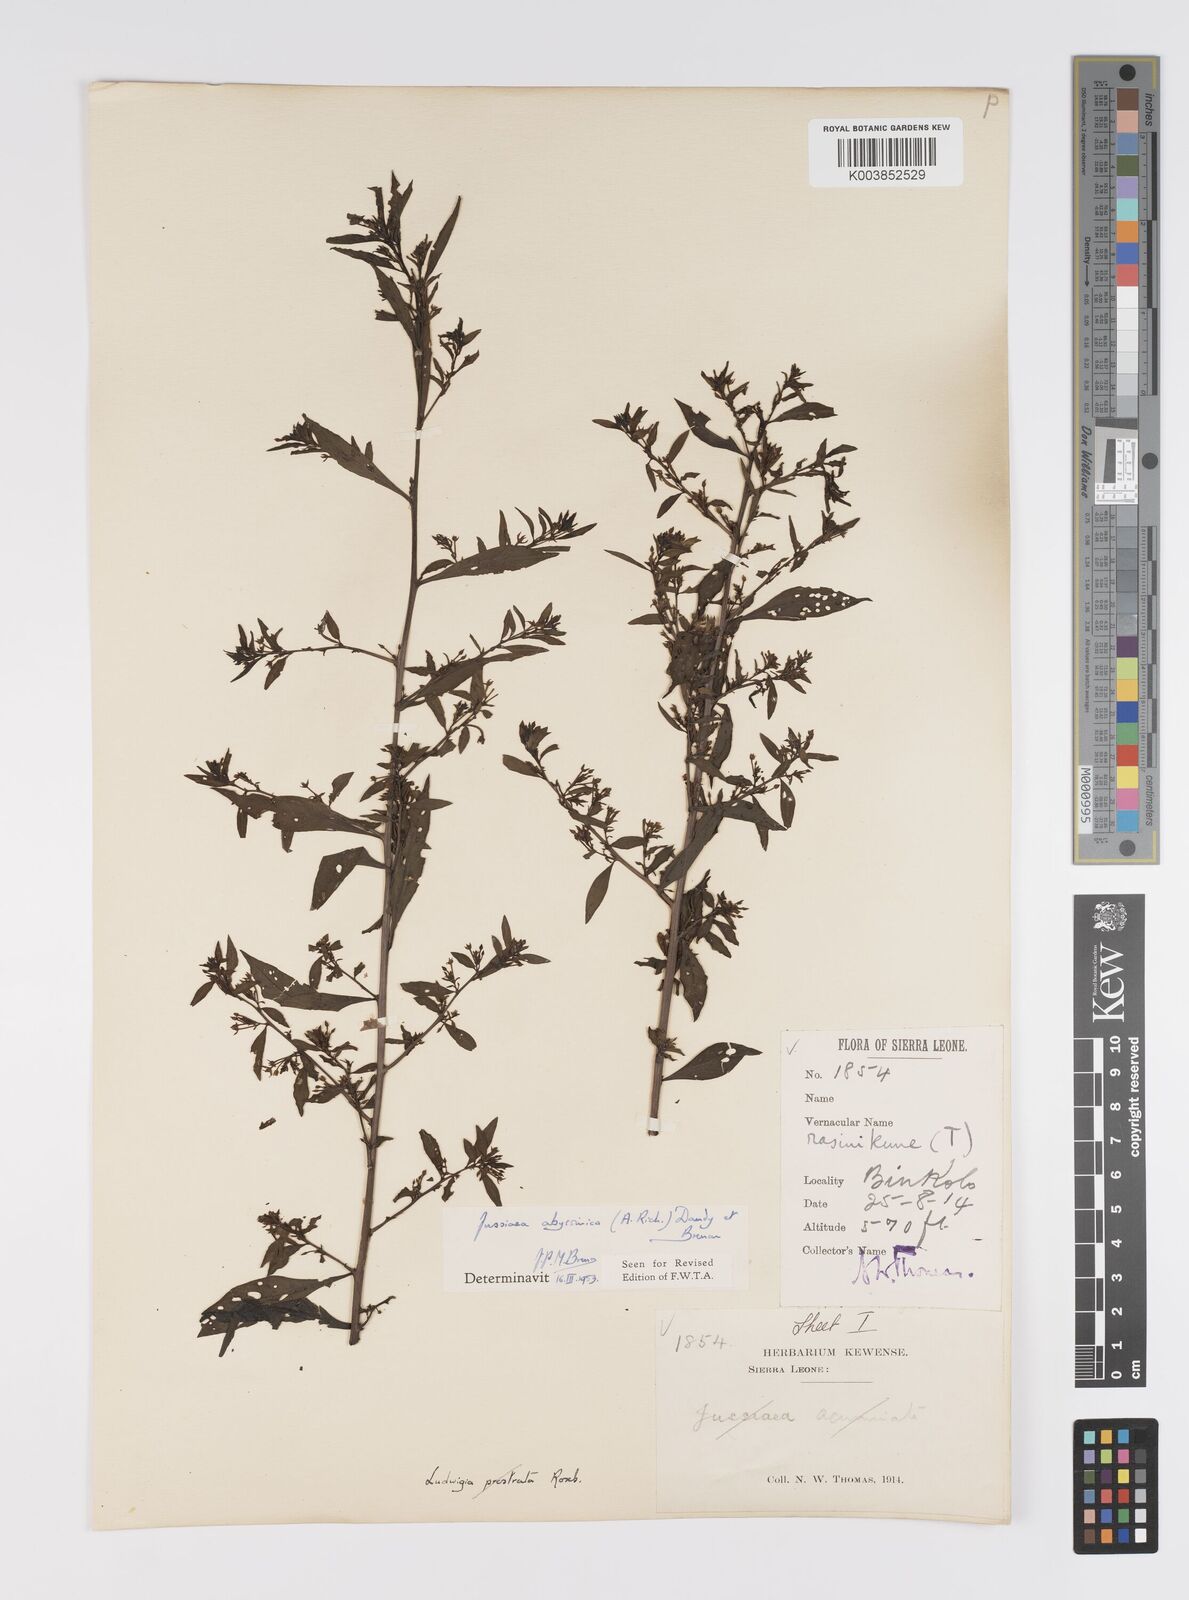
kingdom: Plantae
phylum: Tracheophyta
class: Magnoliopsida
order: Myrtales
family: Onagraceae
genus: Ludwigia
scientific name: Ludwigia abyssinica
